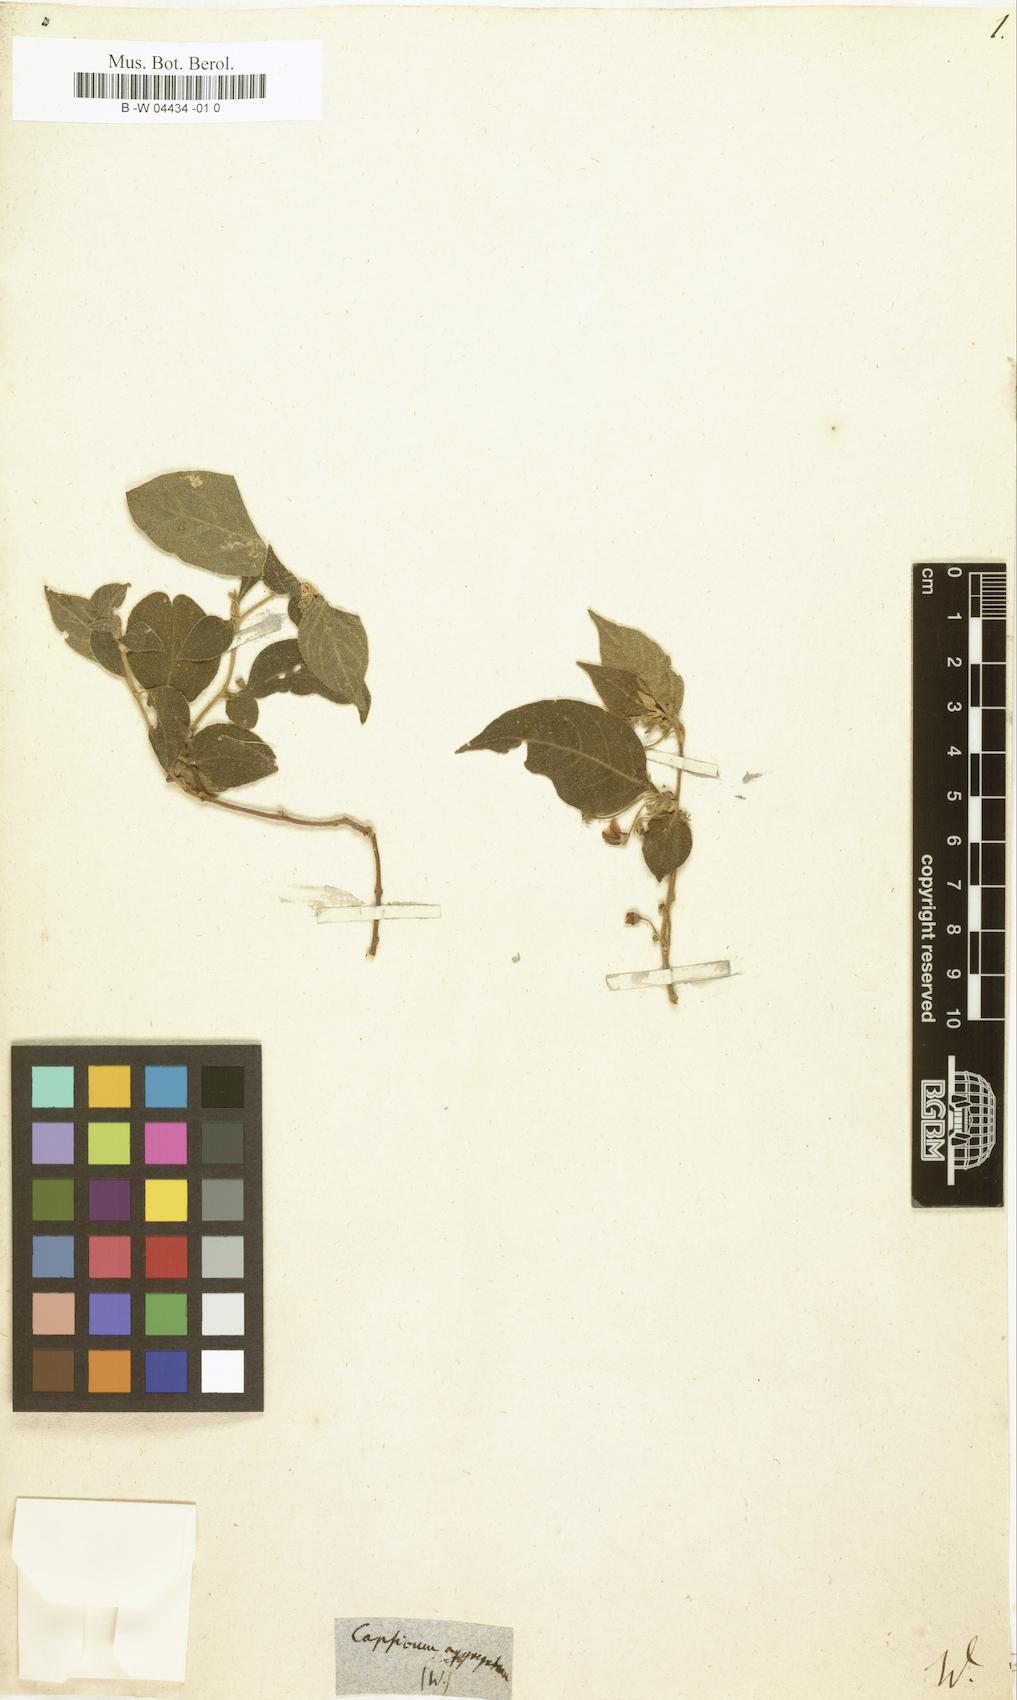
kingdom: Plantae
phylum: Tracheophyta
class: Magnoliopsida
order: Solanales
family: Solanaceae
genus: Capsicum
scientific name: Capsicum rhomboideum
